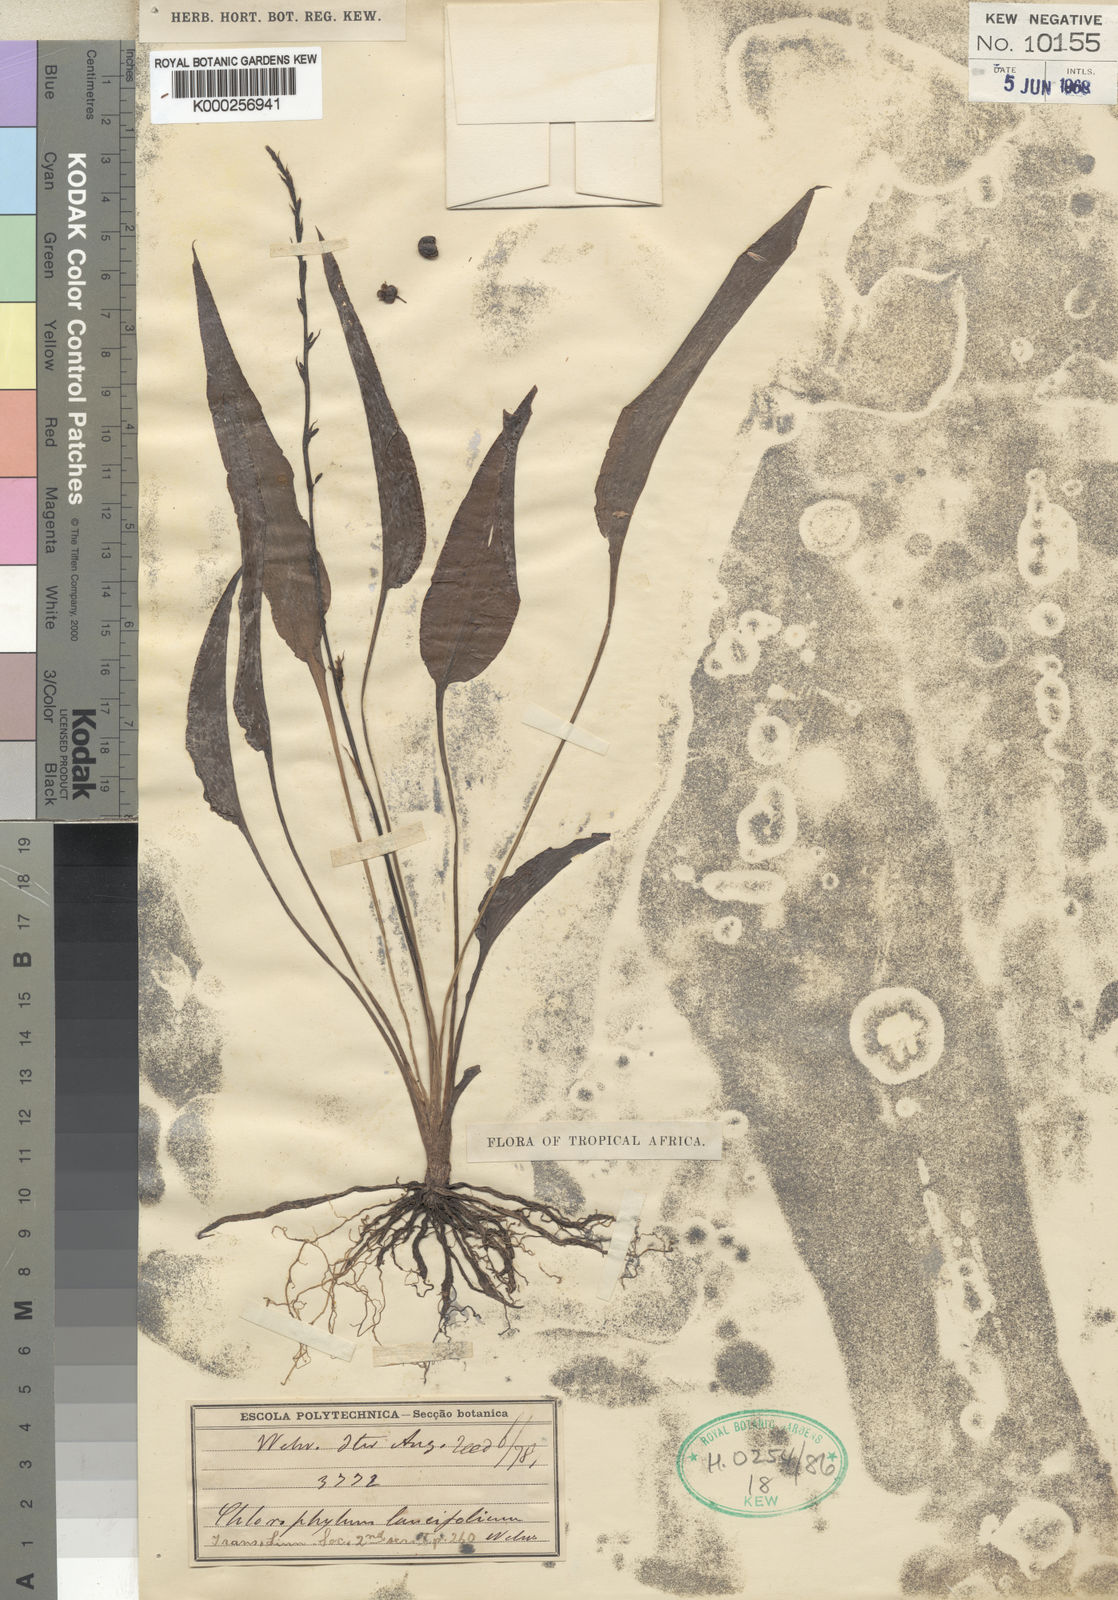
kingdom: Plantae
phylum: Tracheophyta
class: Liliopsida
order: Asparagales
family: Asparagaceae
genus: Chlorophytum
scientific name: Chlorophytum lancifolium
